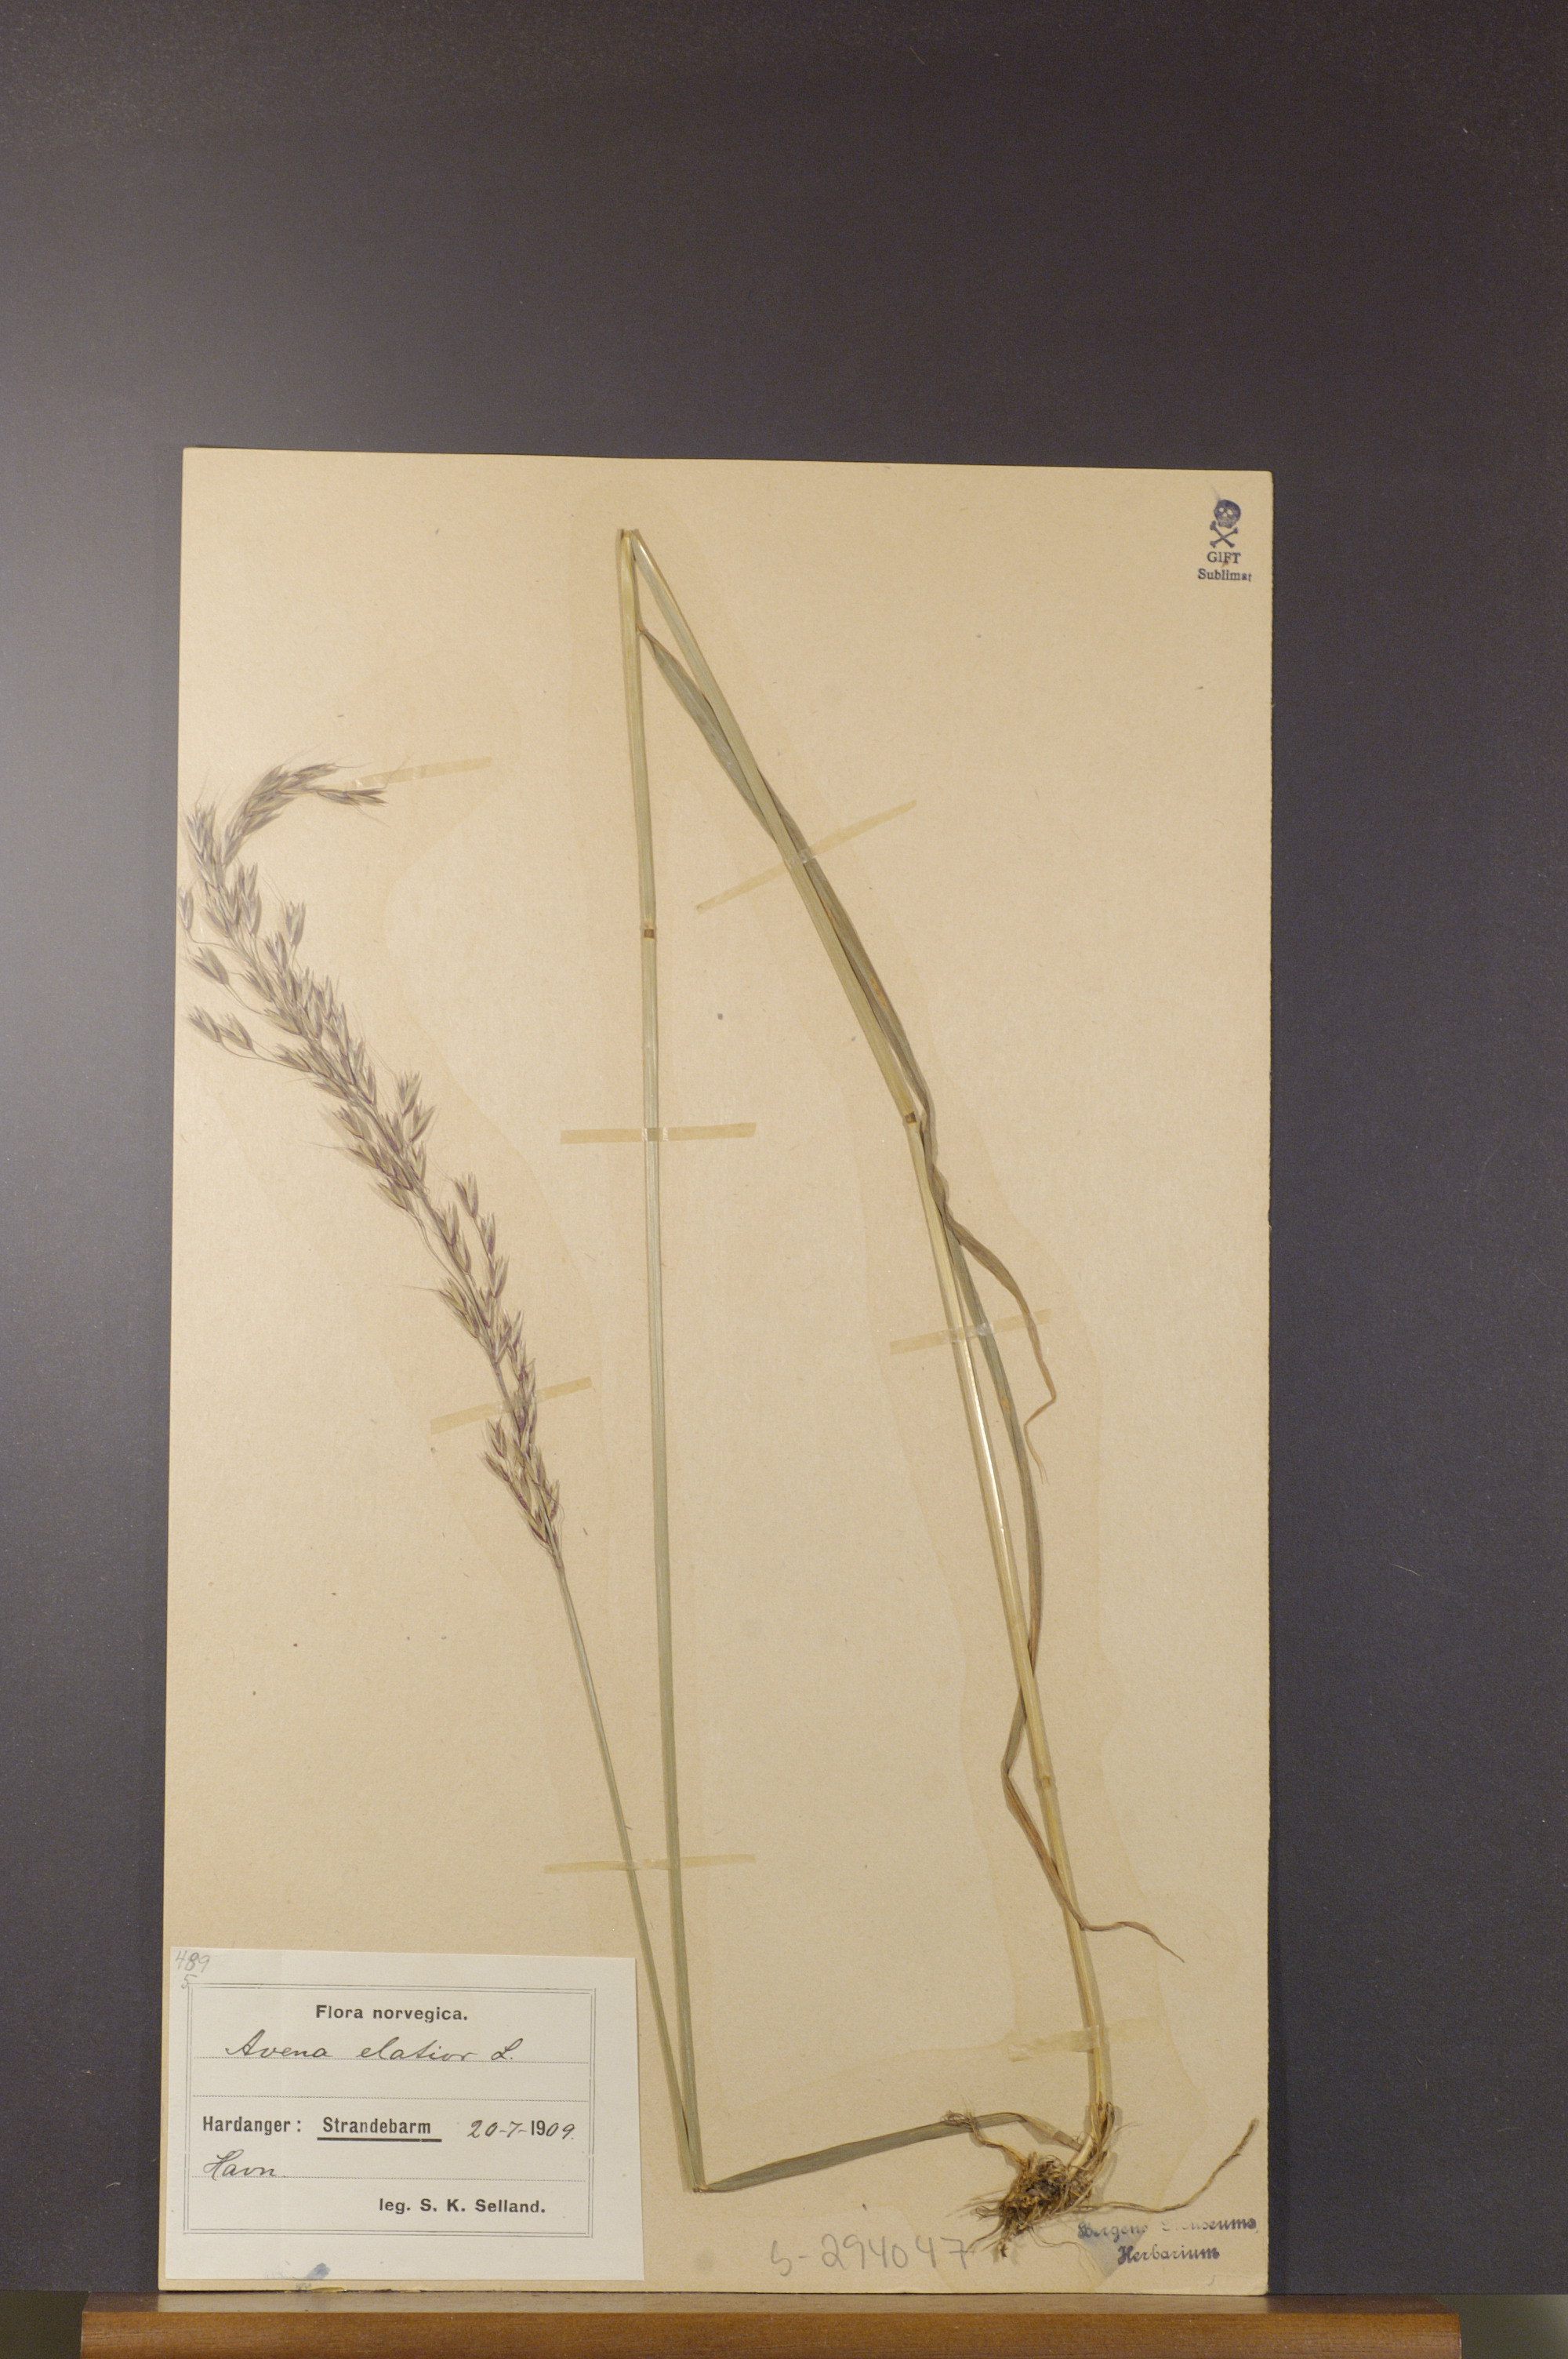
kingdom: Plantae
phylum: Tracheophyta
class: Liliopsida
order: Poales
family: Poaceae
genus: Arrhenatherum
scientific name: Arrhenatherum elatius
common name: Tall oatgrass
